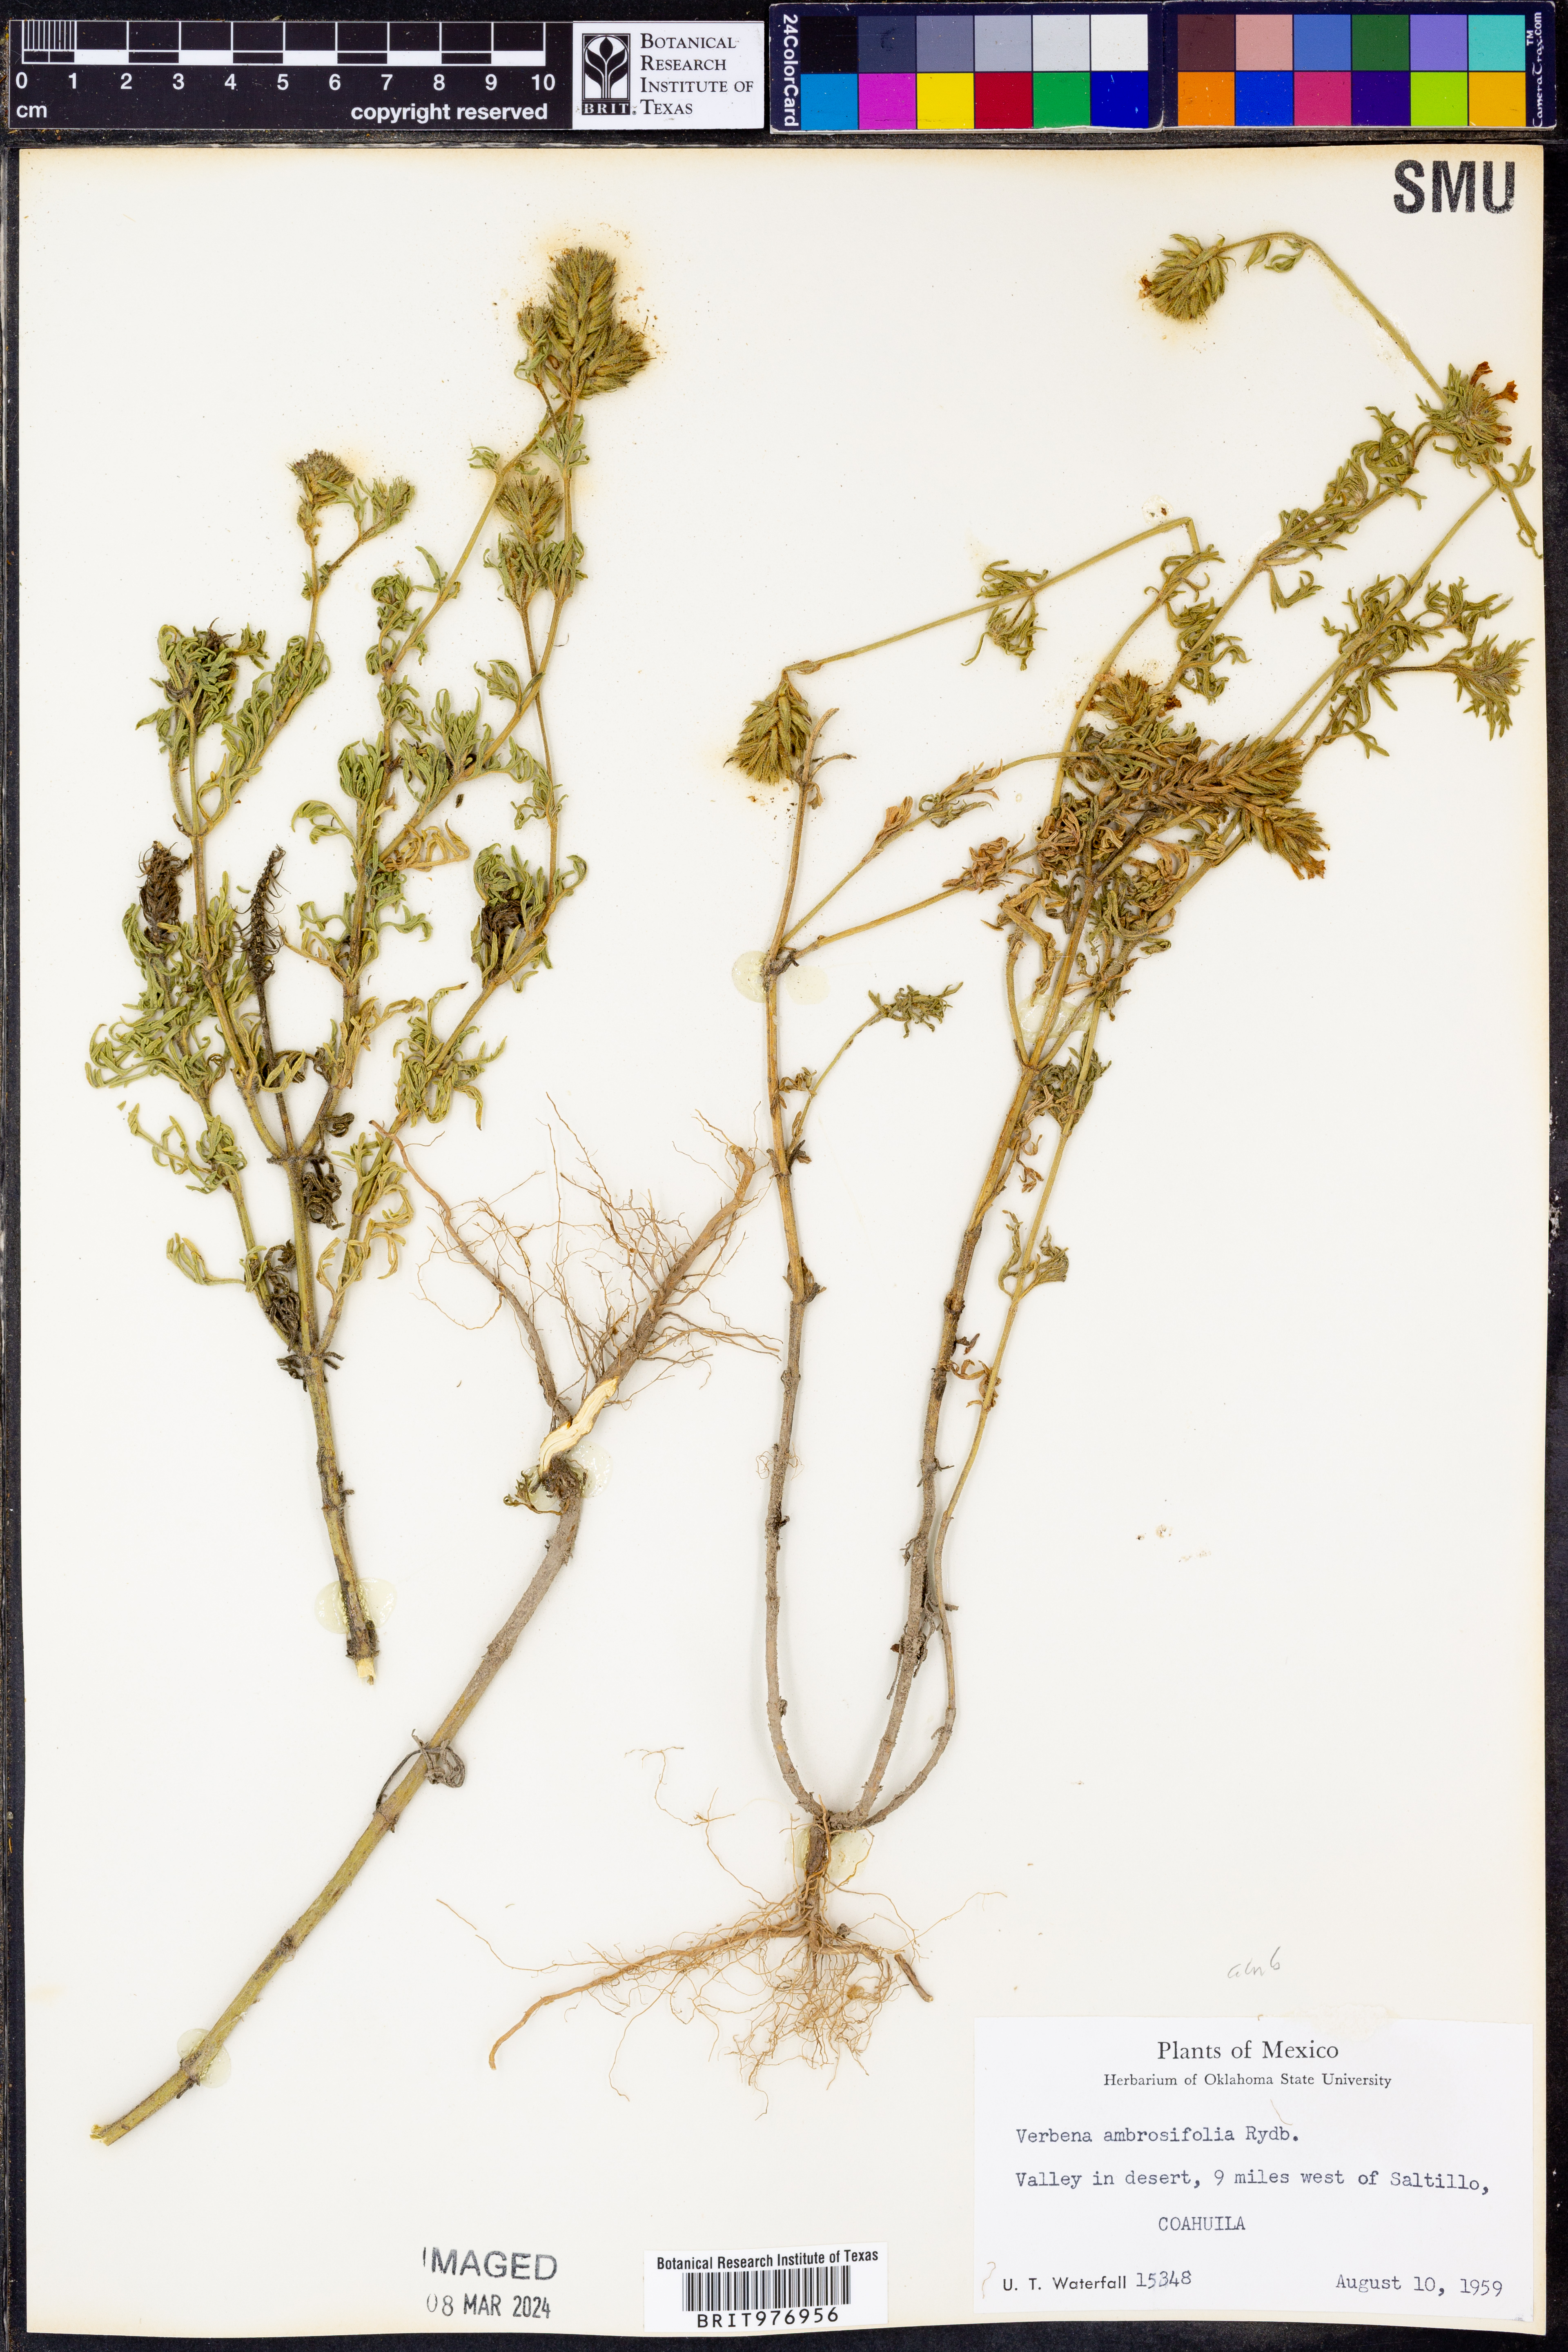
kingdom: Plantae
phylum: Tracheophyta
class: Magnoliopsida
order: Lamiales
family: Verbenaceae
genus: Verbena
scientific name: Verbena
